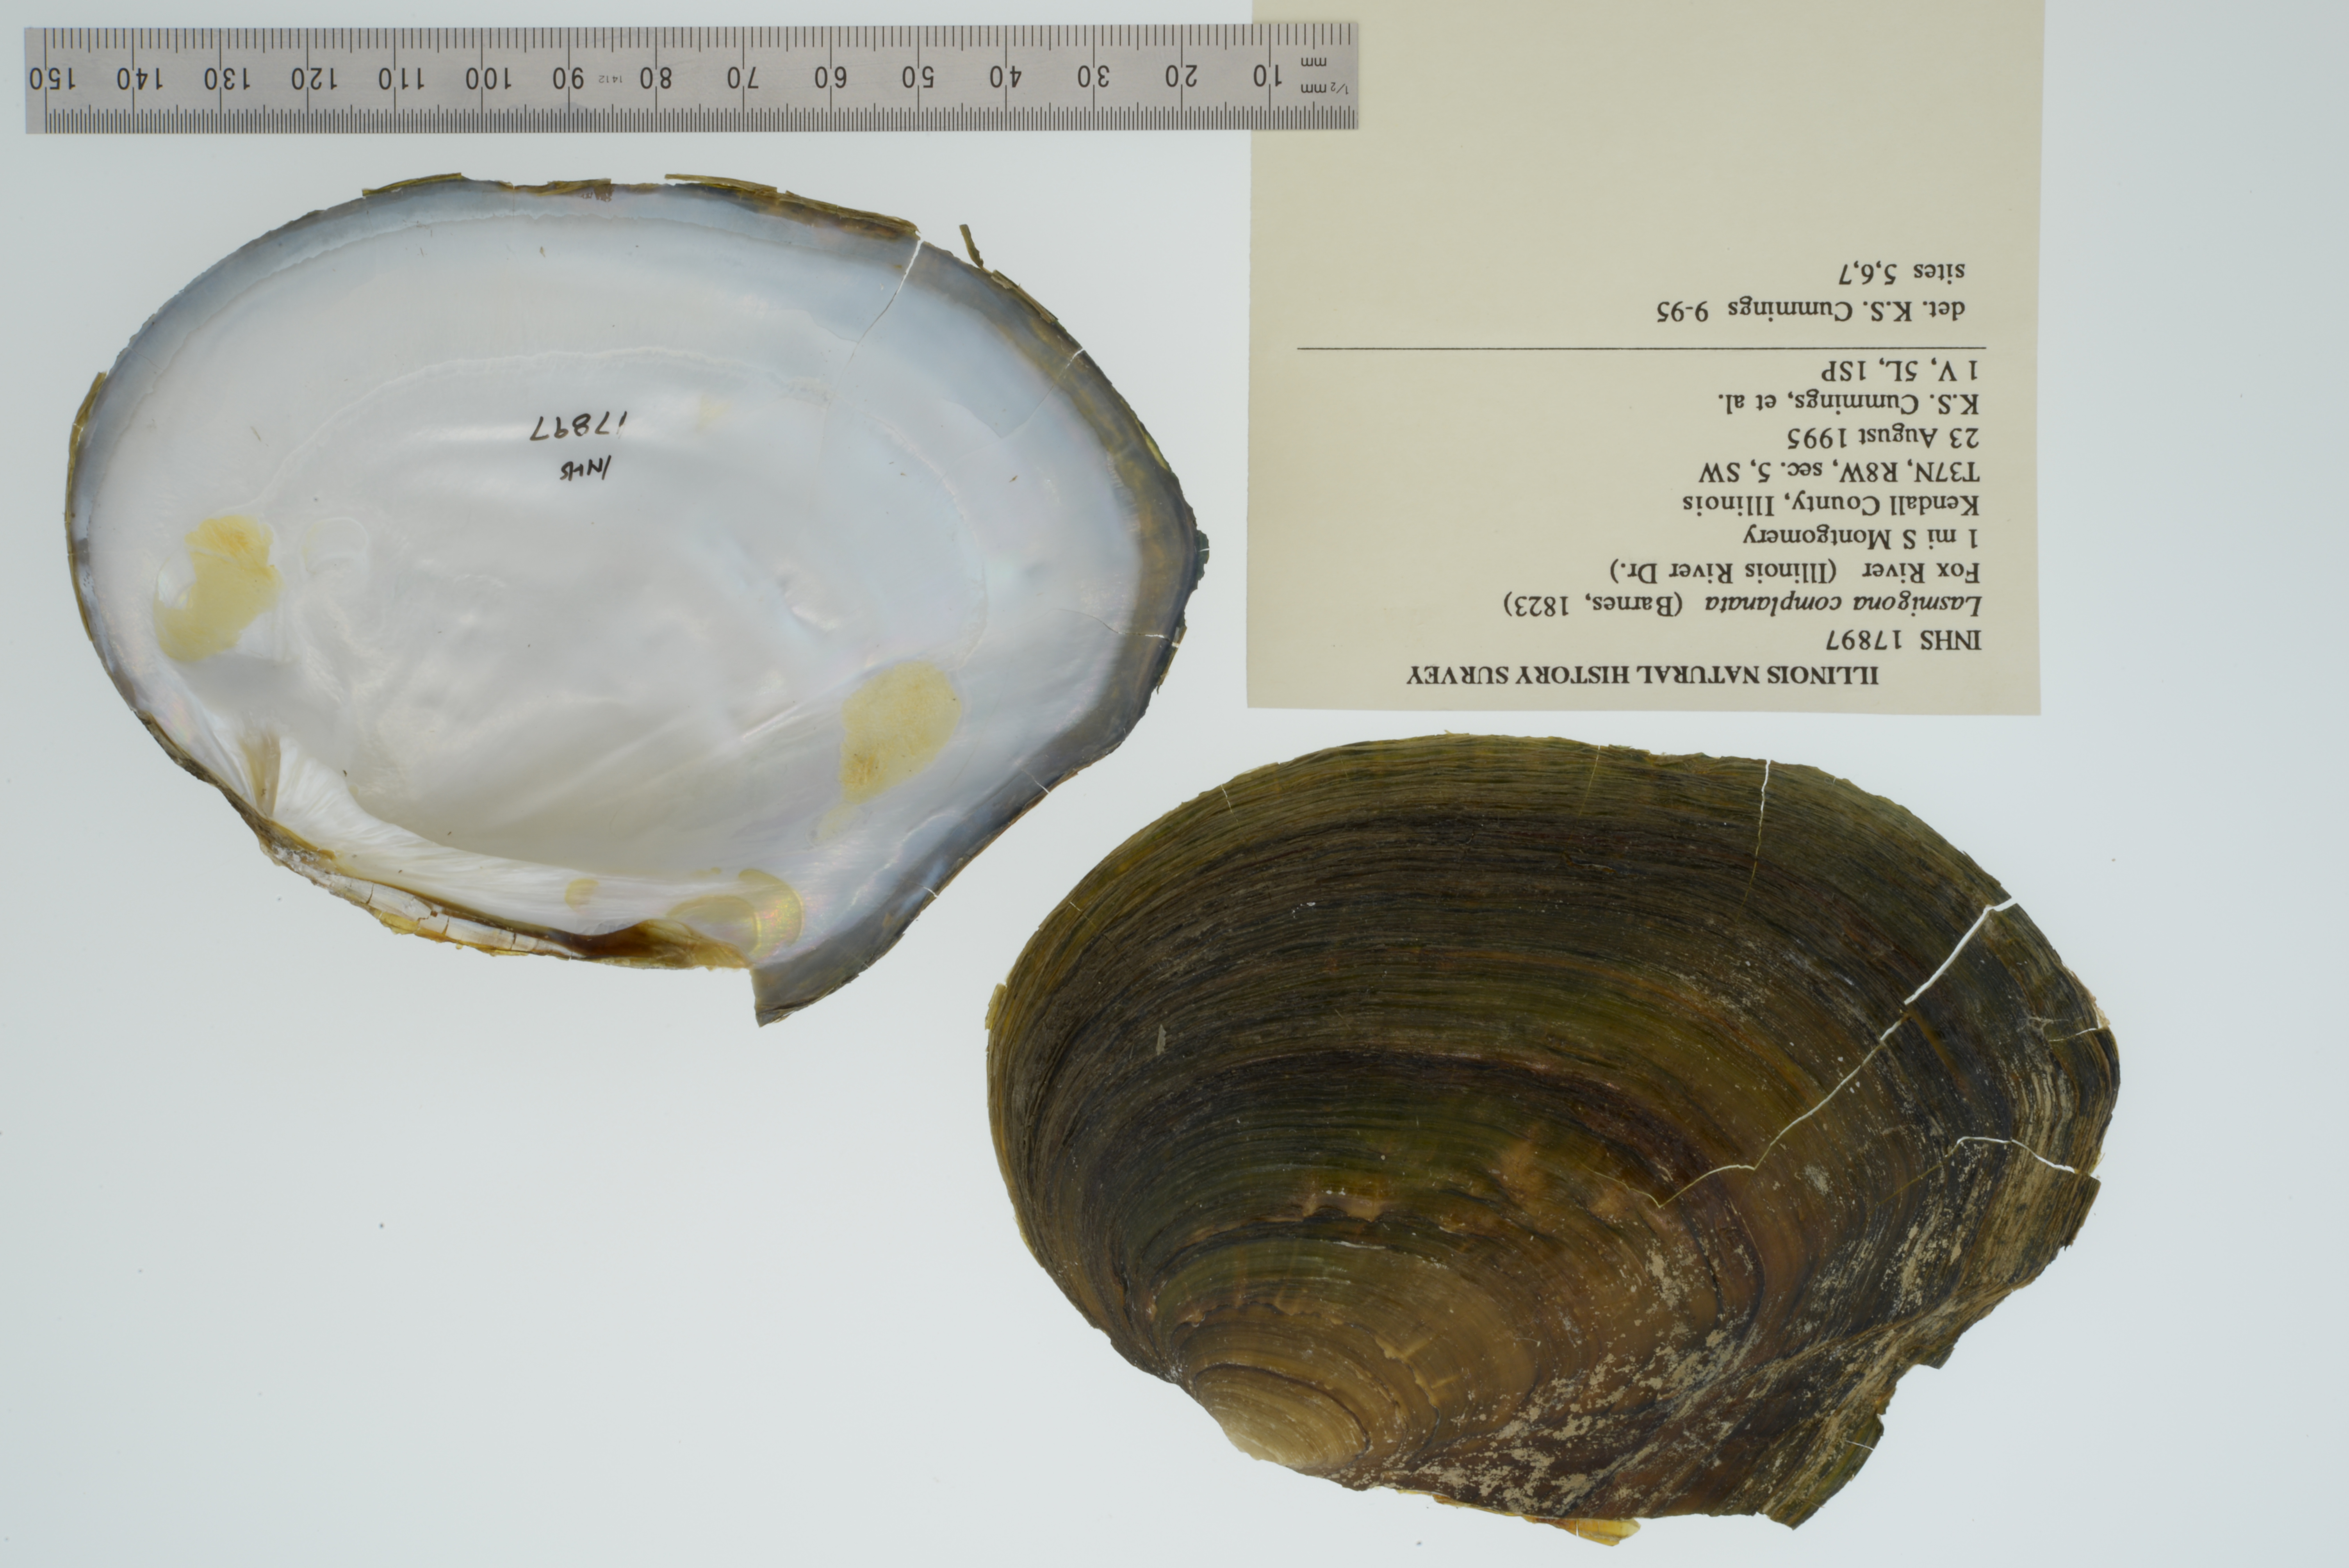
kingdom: Animalia
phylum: Mollusca
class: Bivalvia
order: Unionida
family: Unionidae
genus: Lasmigona
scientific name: Lasmigona complanata
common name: White heelsplitter
